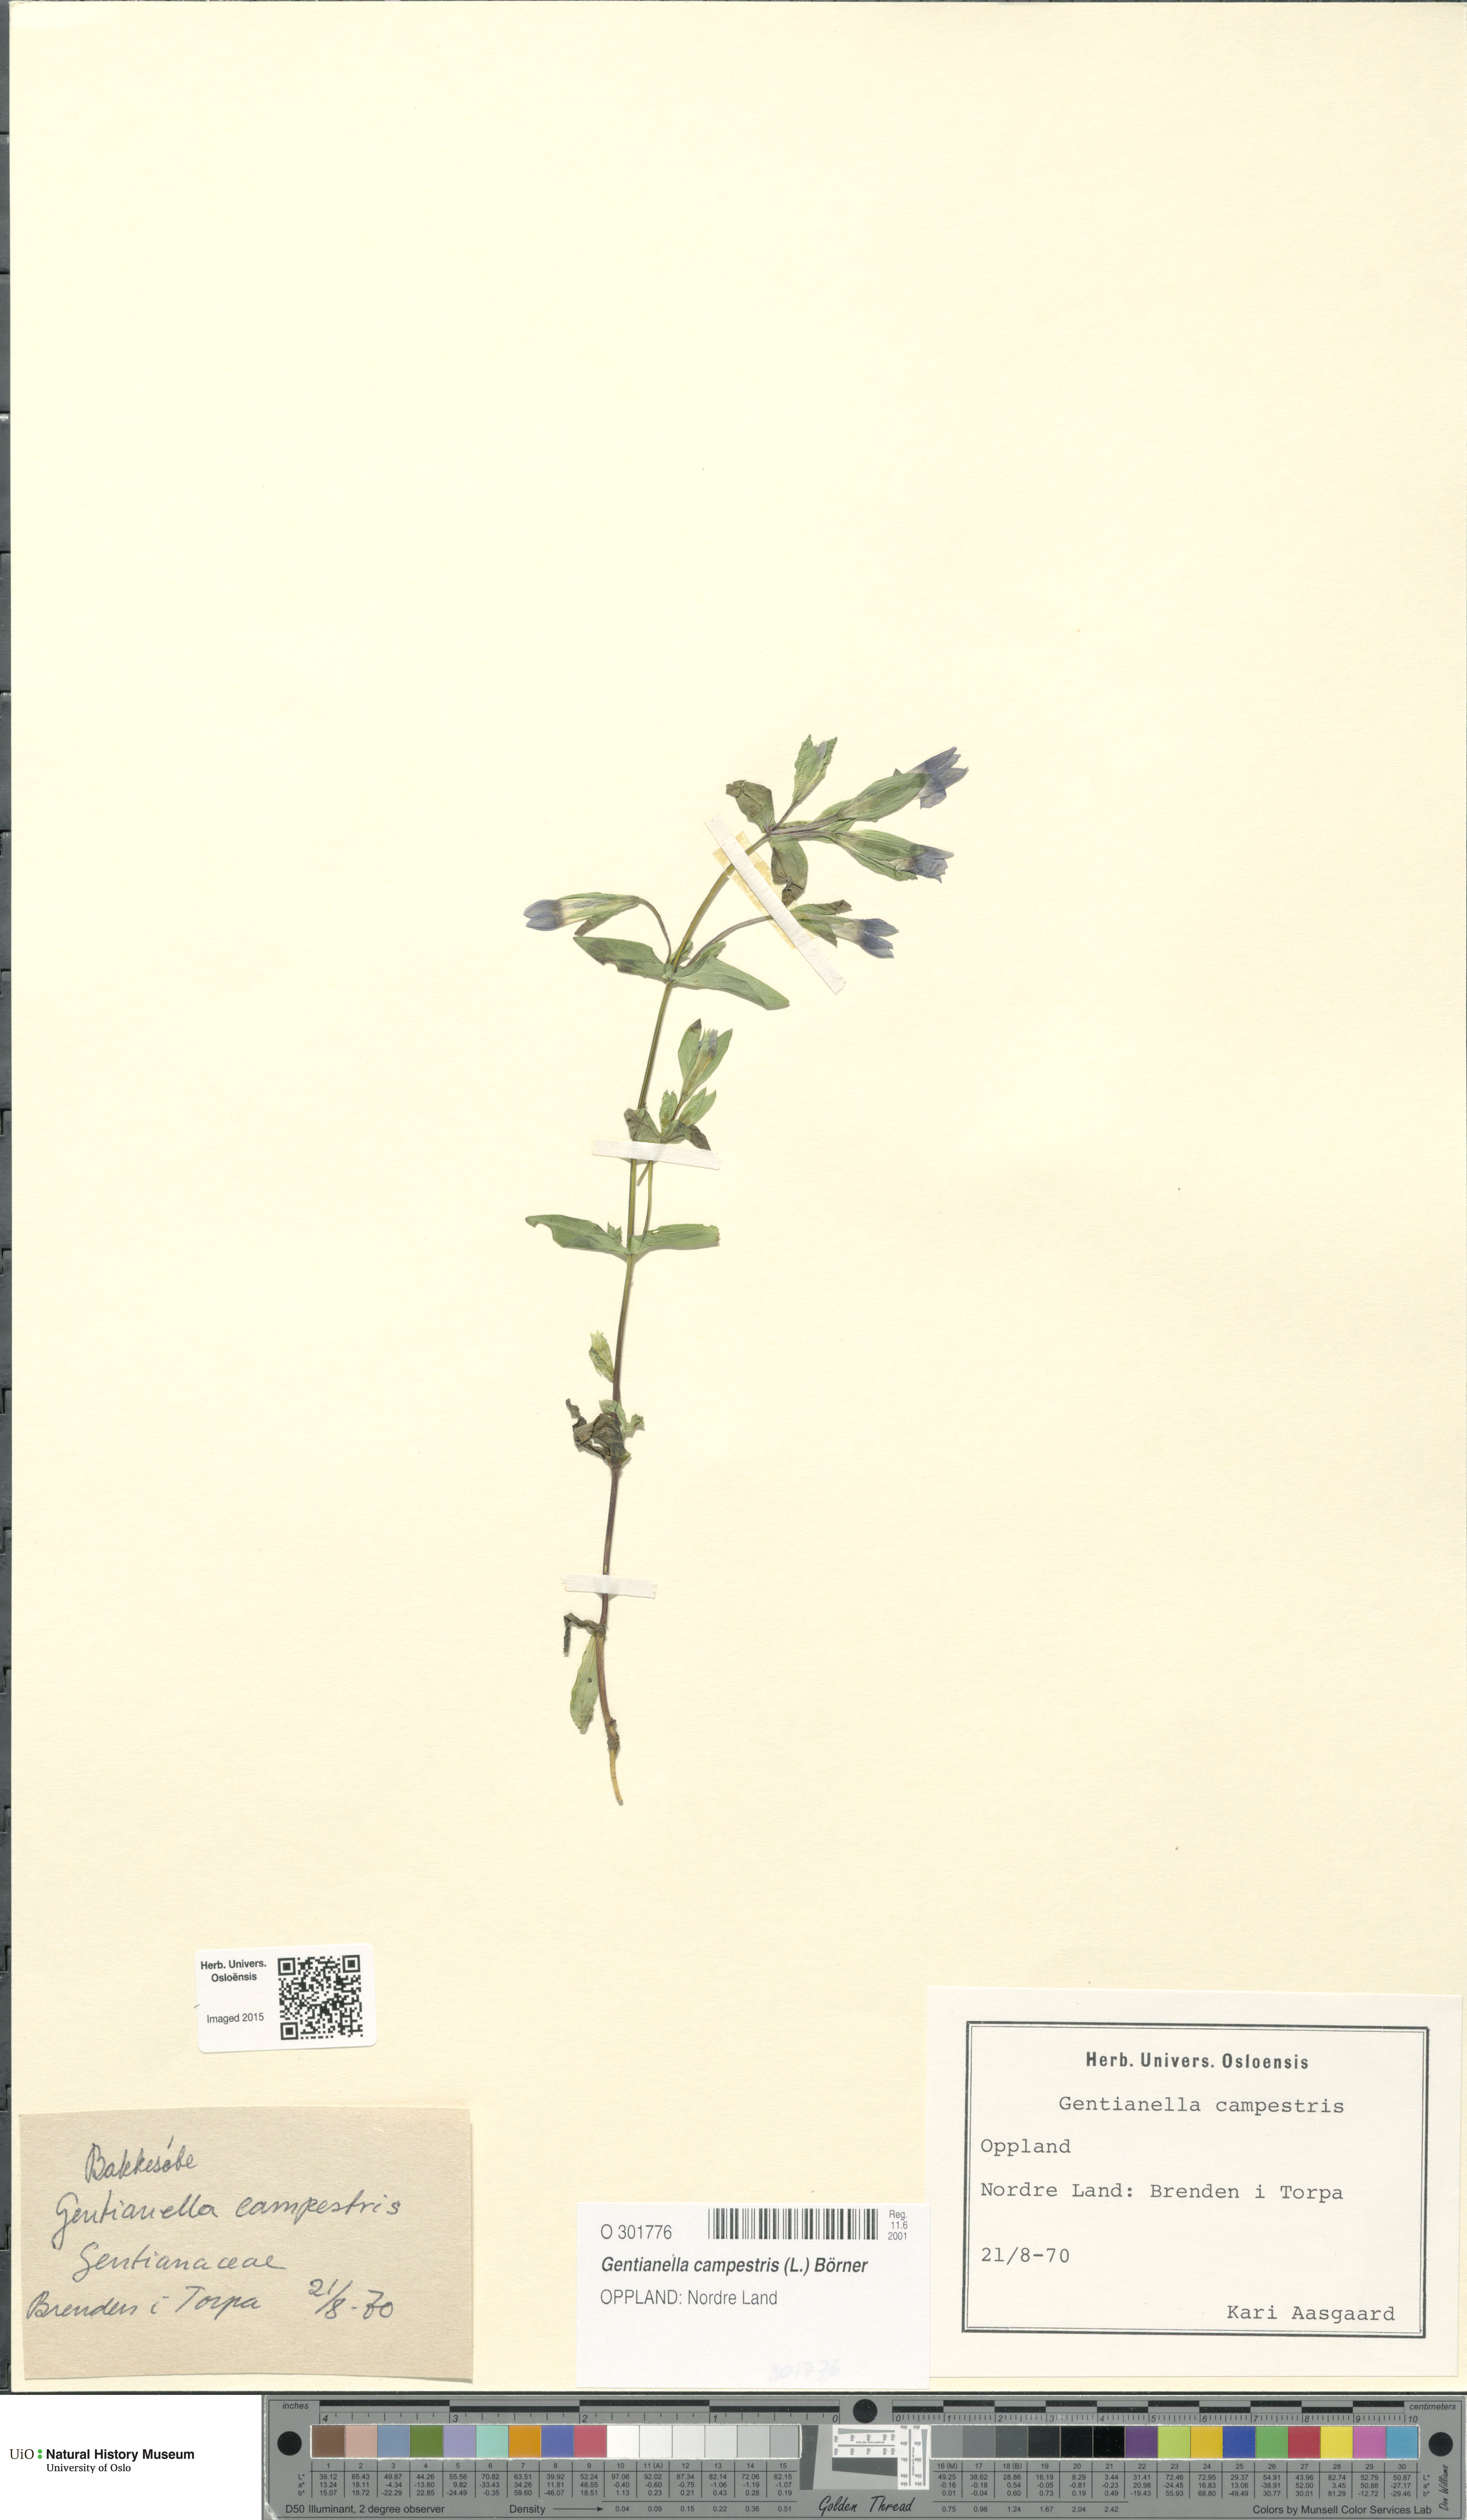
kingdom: Plantae
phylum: Tracheophyta
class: Magnoliopsida
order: Gentianales
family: Gentianaceae
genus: Gentianella
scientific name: Gentianella campestris
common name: Field gentian
